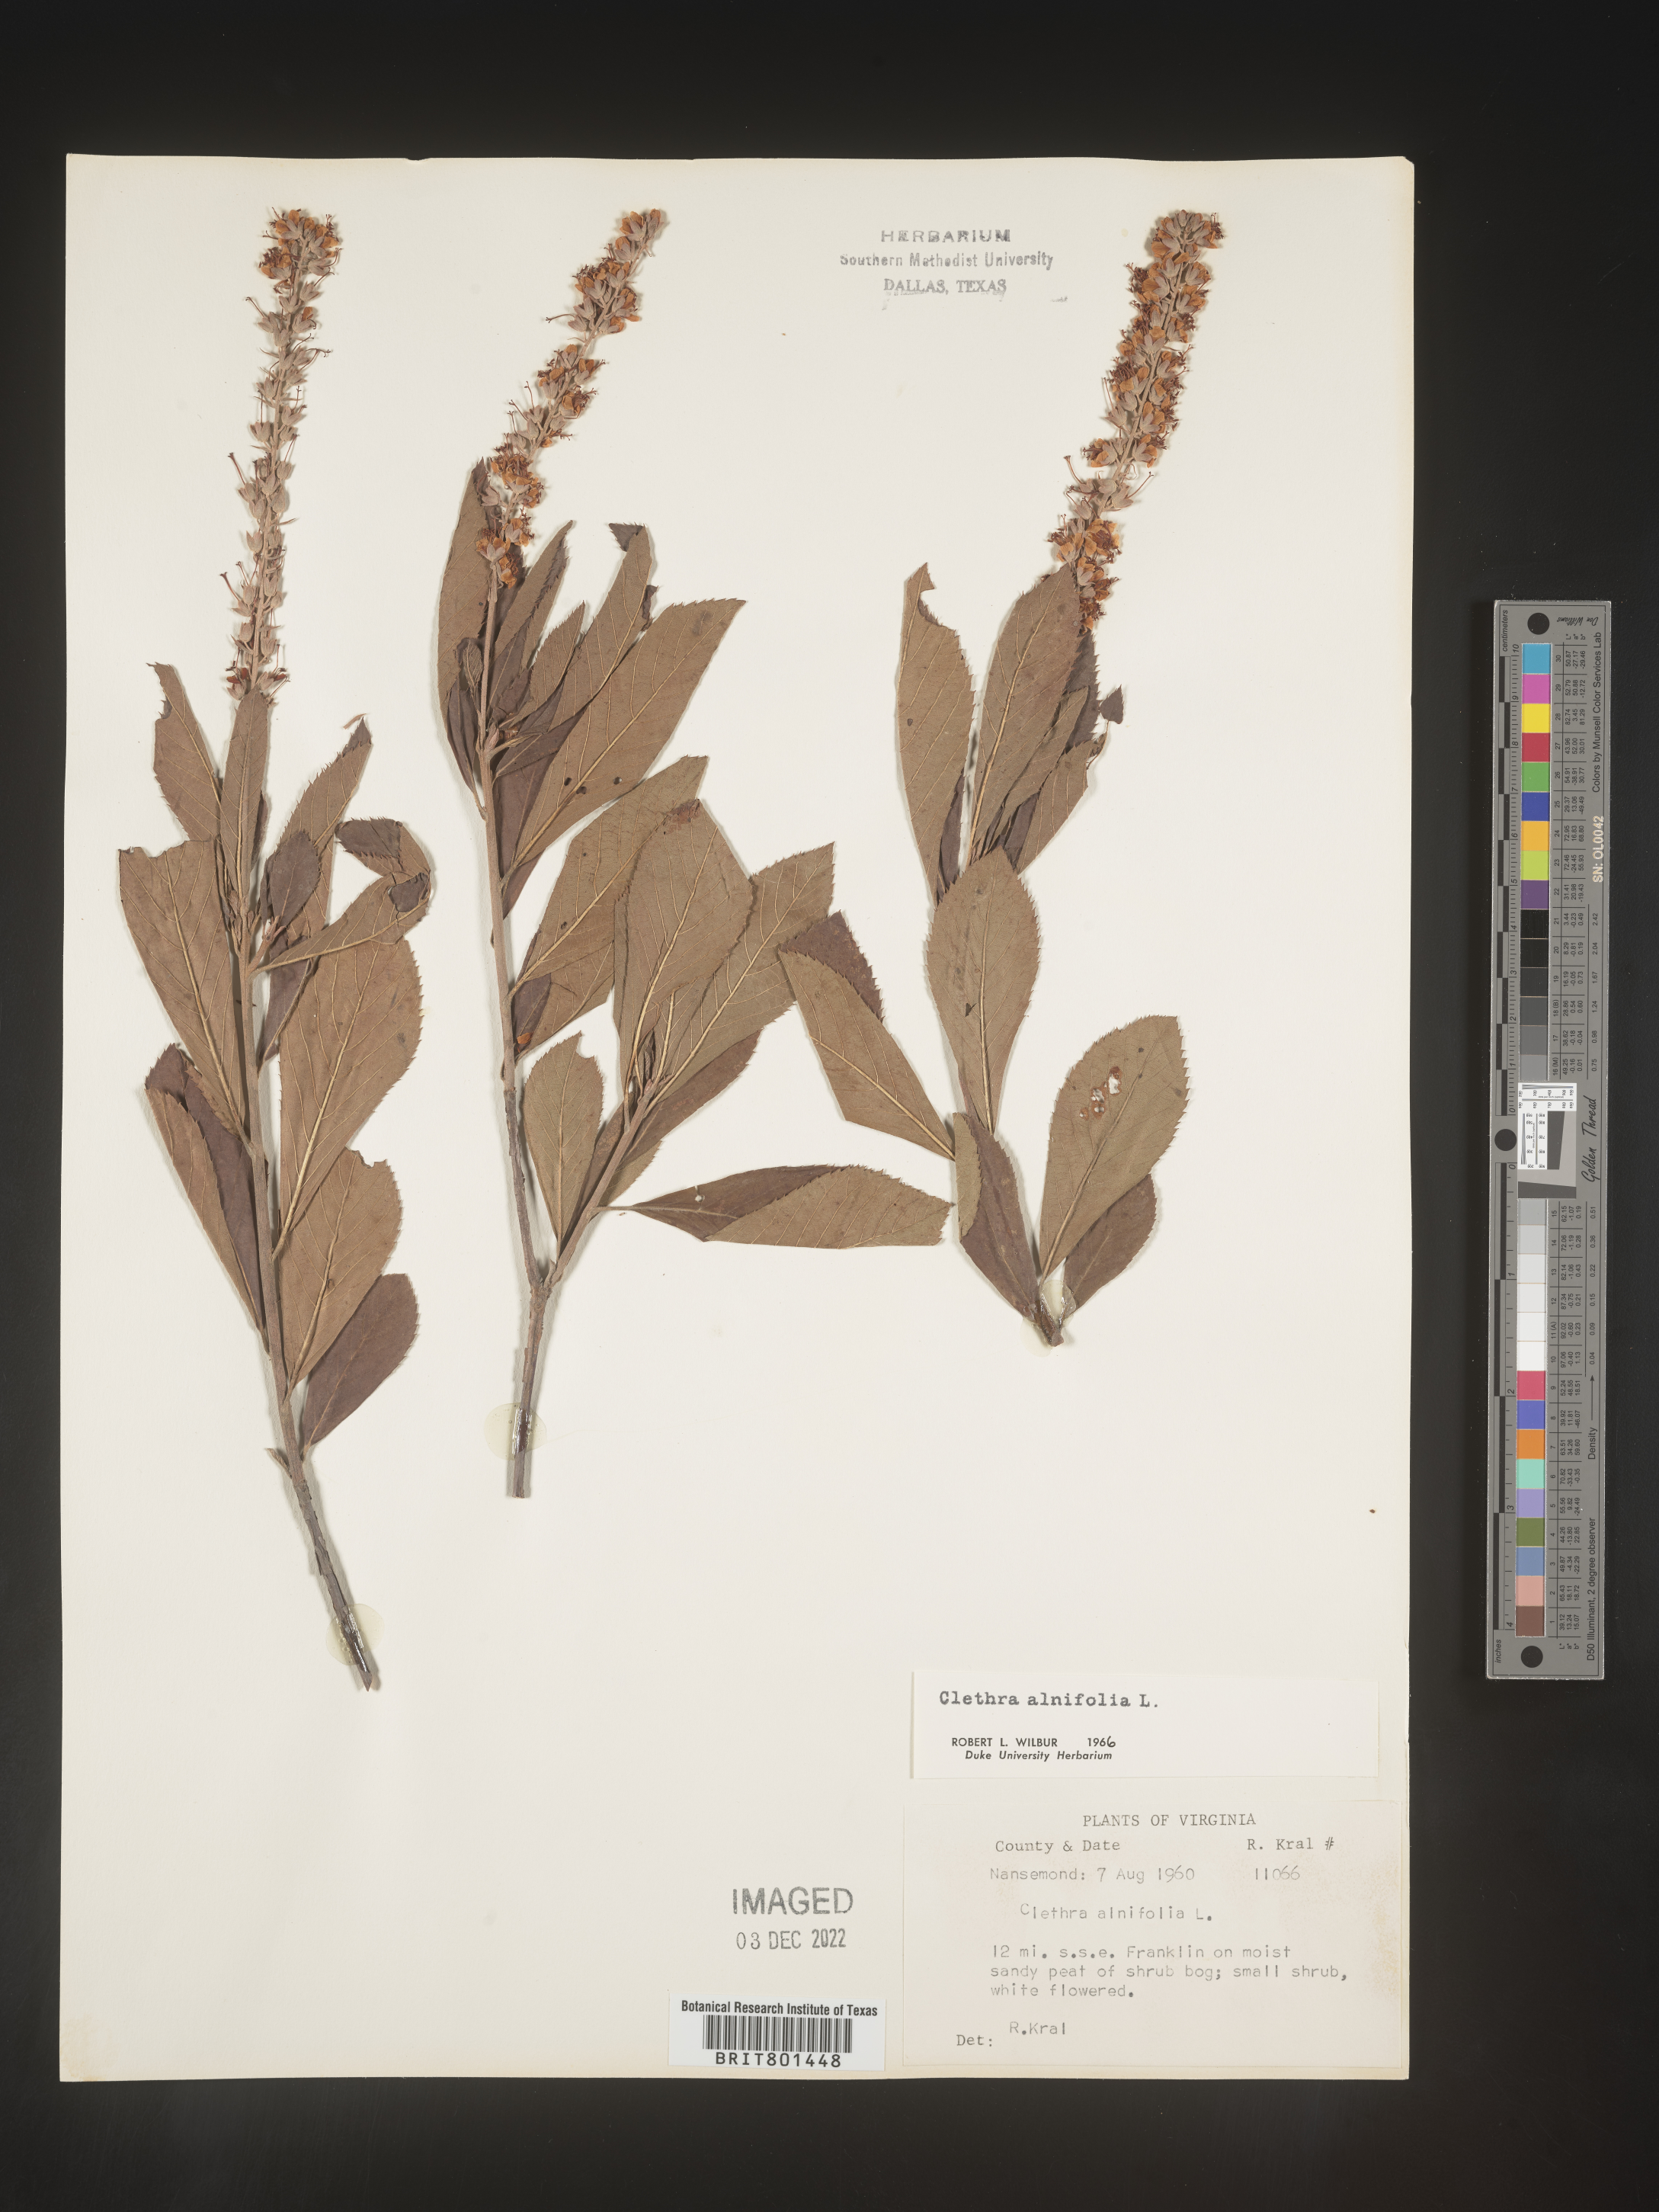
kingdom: Plantae
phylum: Tracheophyta
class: Magnoliopsida
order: Ericales
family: Clethraceae
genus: Clethra
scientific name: Clethra alnifolia
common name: Sweet pepperbush
